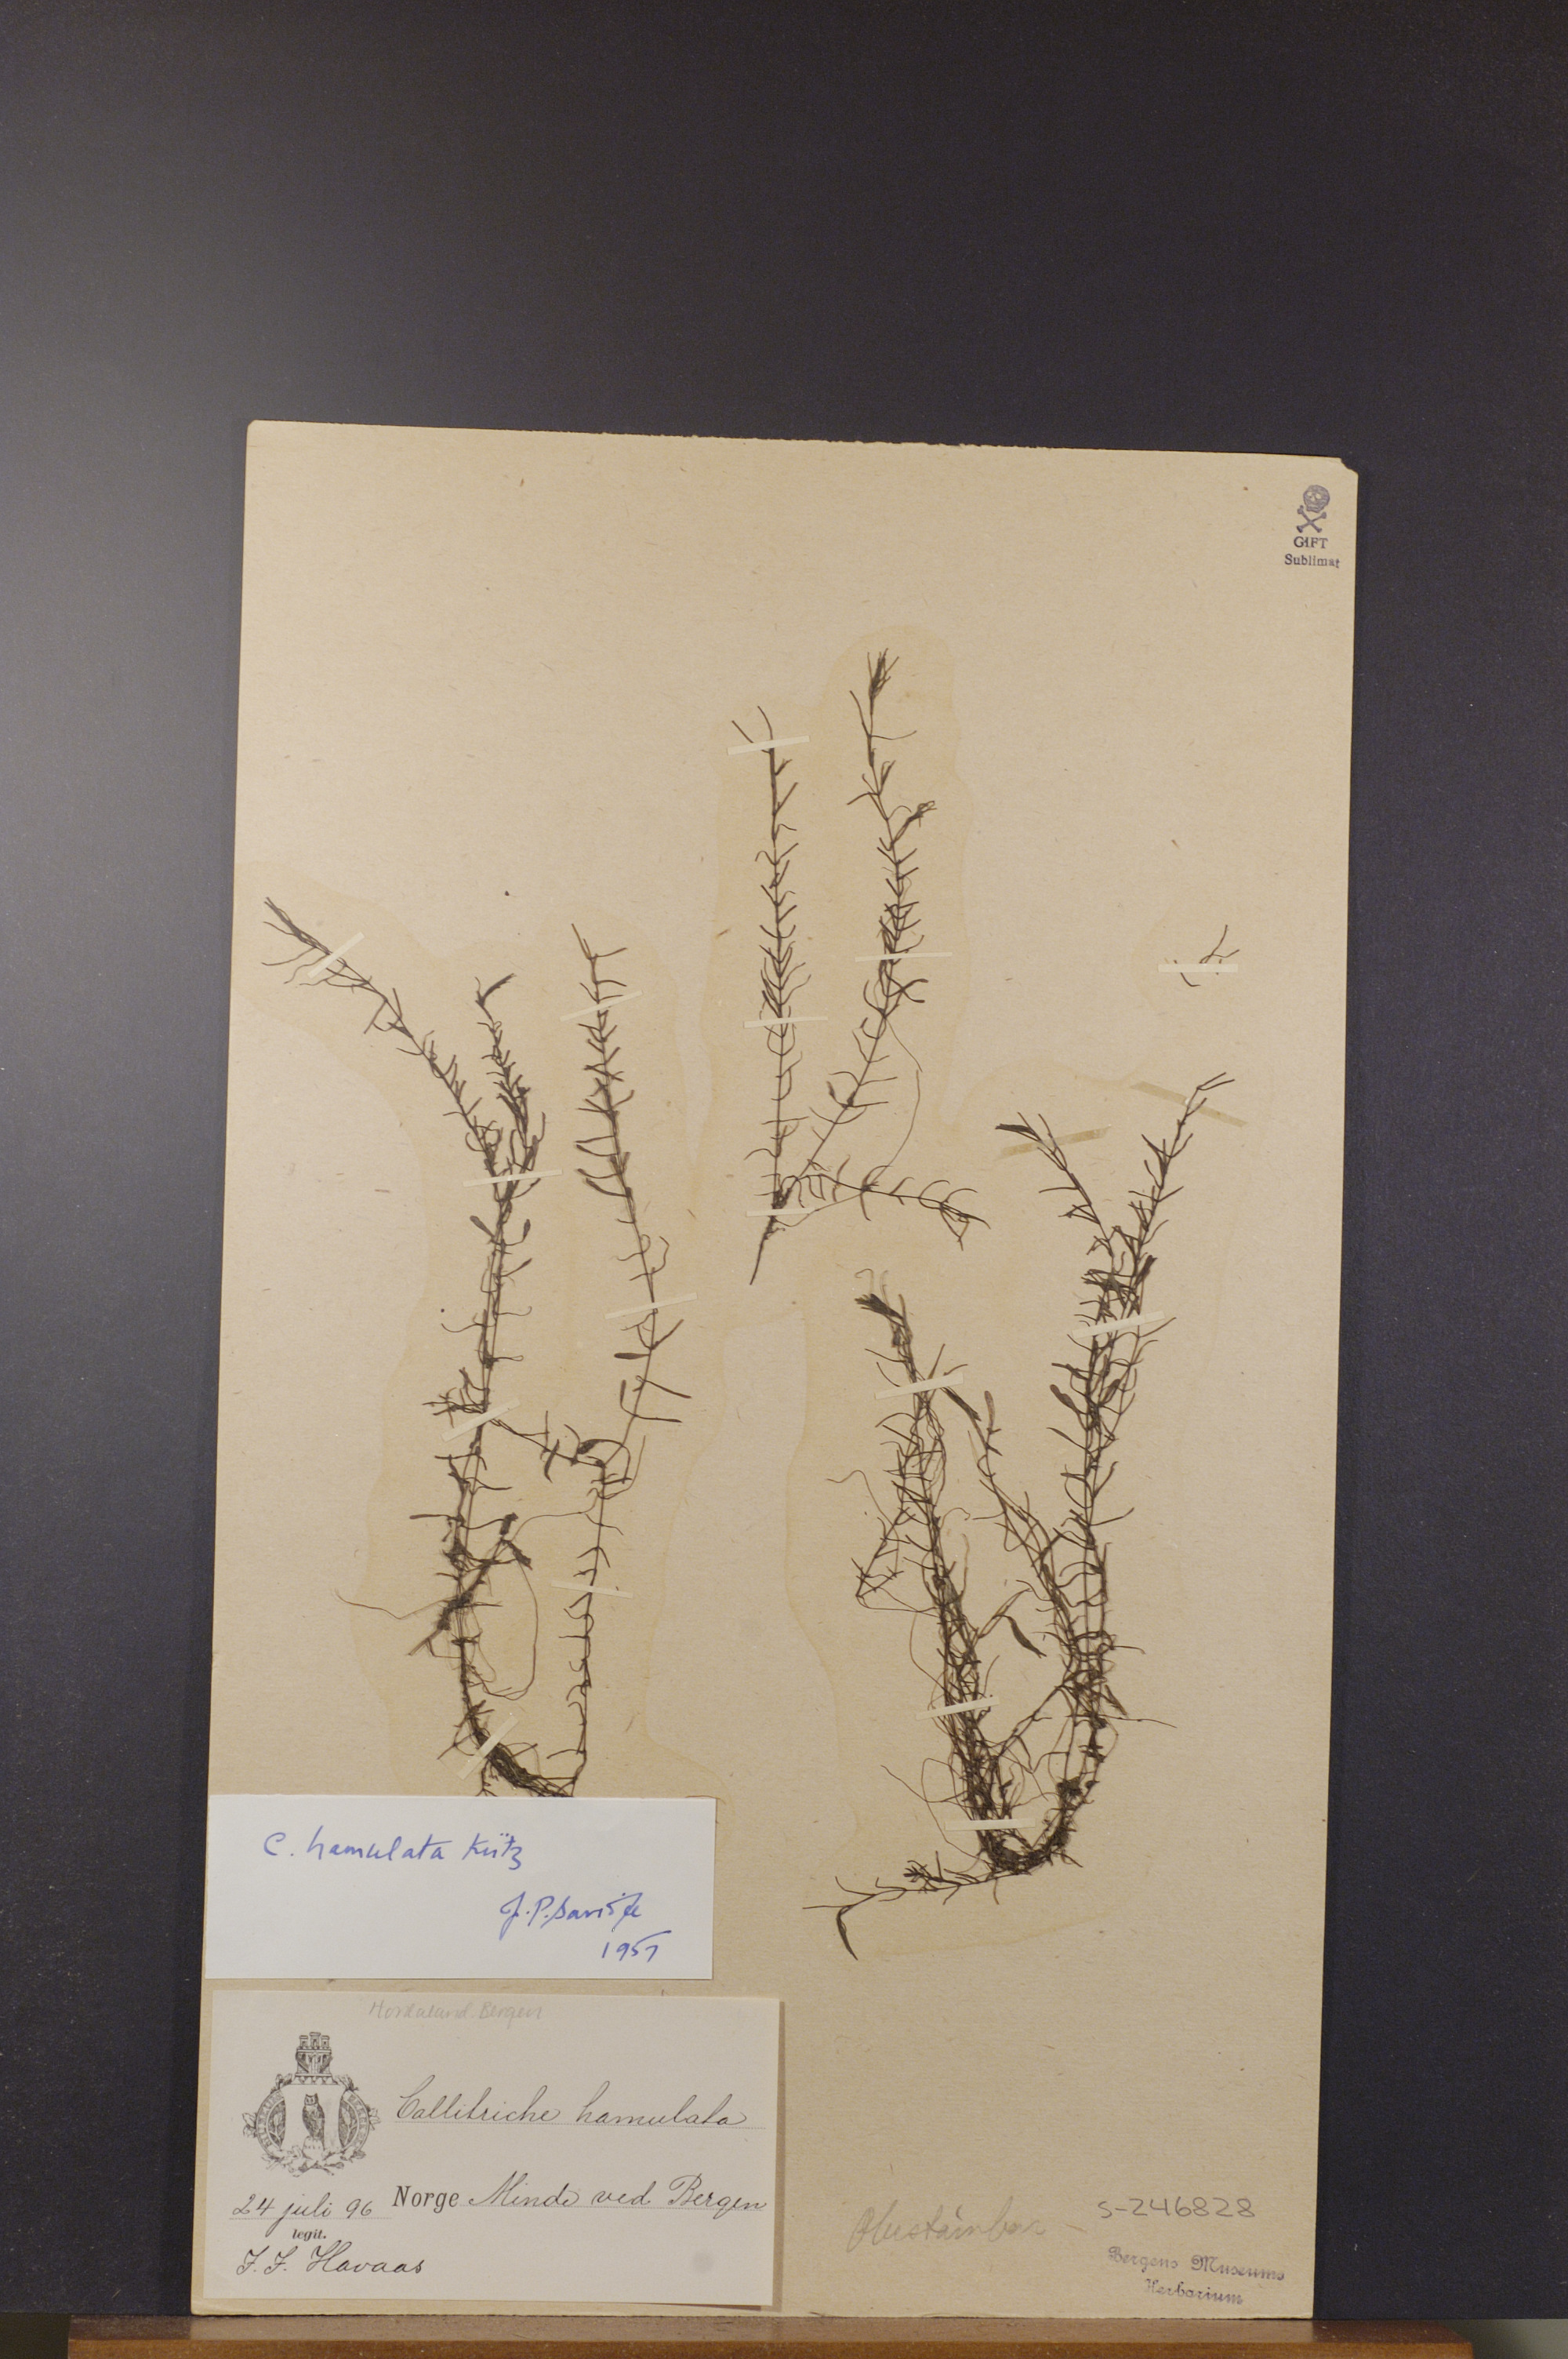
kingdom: Plantae
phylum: Tracheophyta
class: Magnoliopsida
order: Lamiales
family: Plantaginaceae
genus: Callitriche
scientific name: Callitriche hamulata
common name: Intermediate water-starwort
